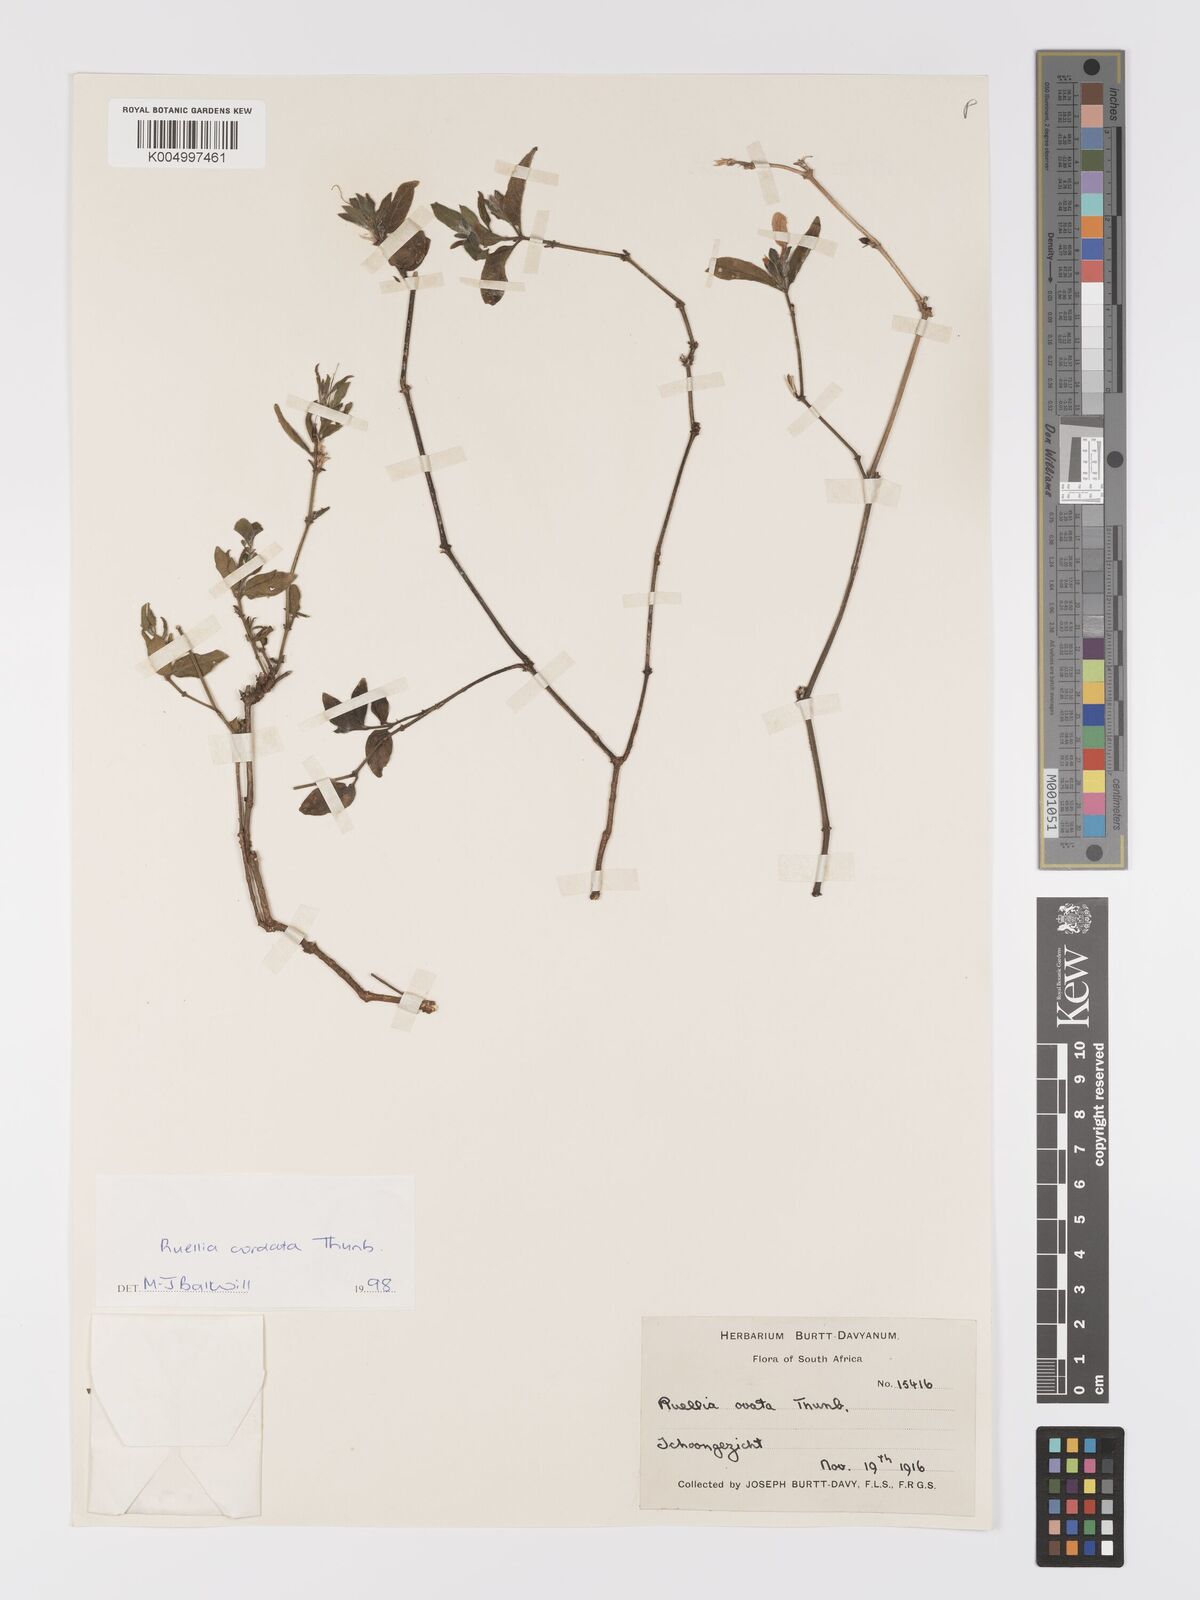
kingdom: Plantae
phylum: Tracheophyta
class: Magnoliopsida
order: Lamiales
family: Acanthaceae
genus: Ruellia
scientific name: Ruellia cordata
